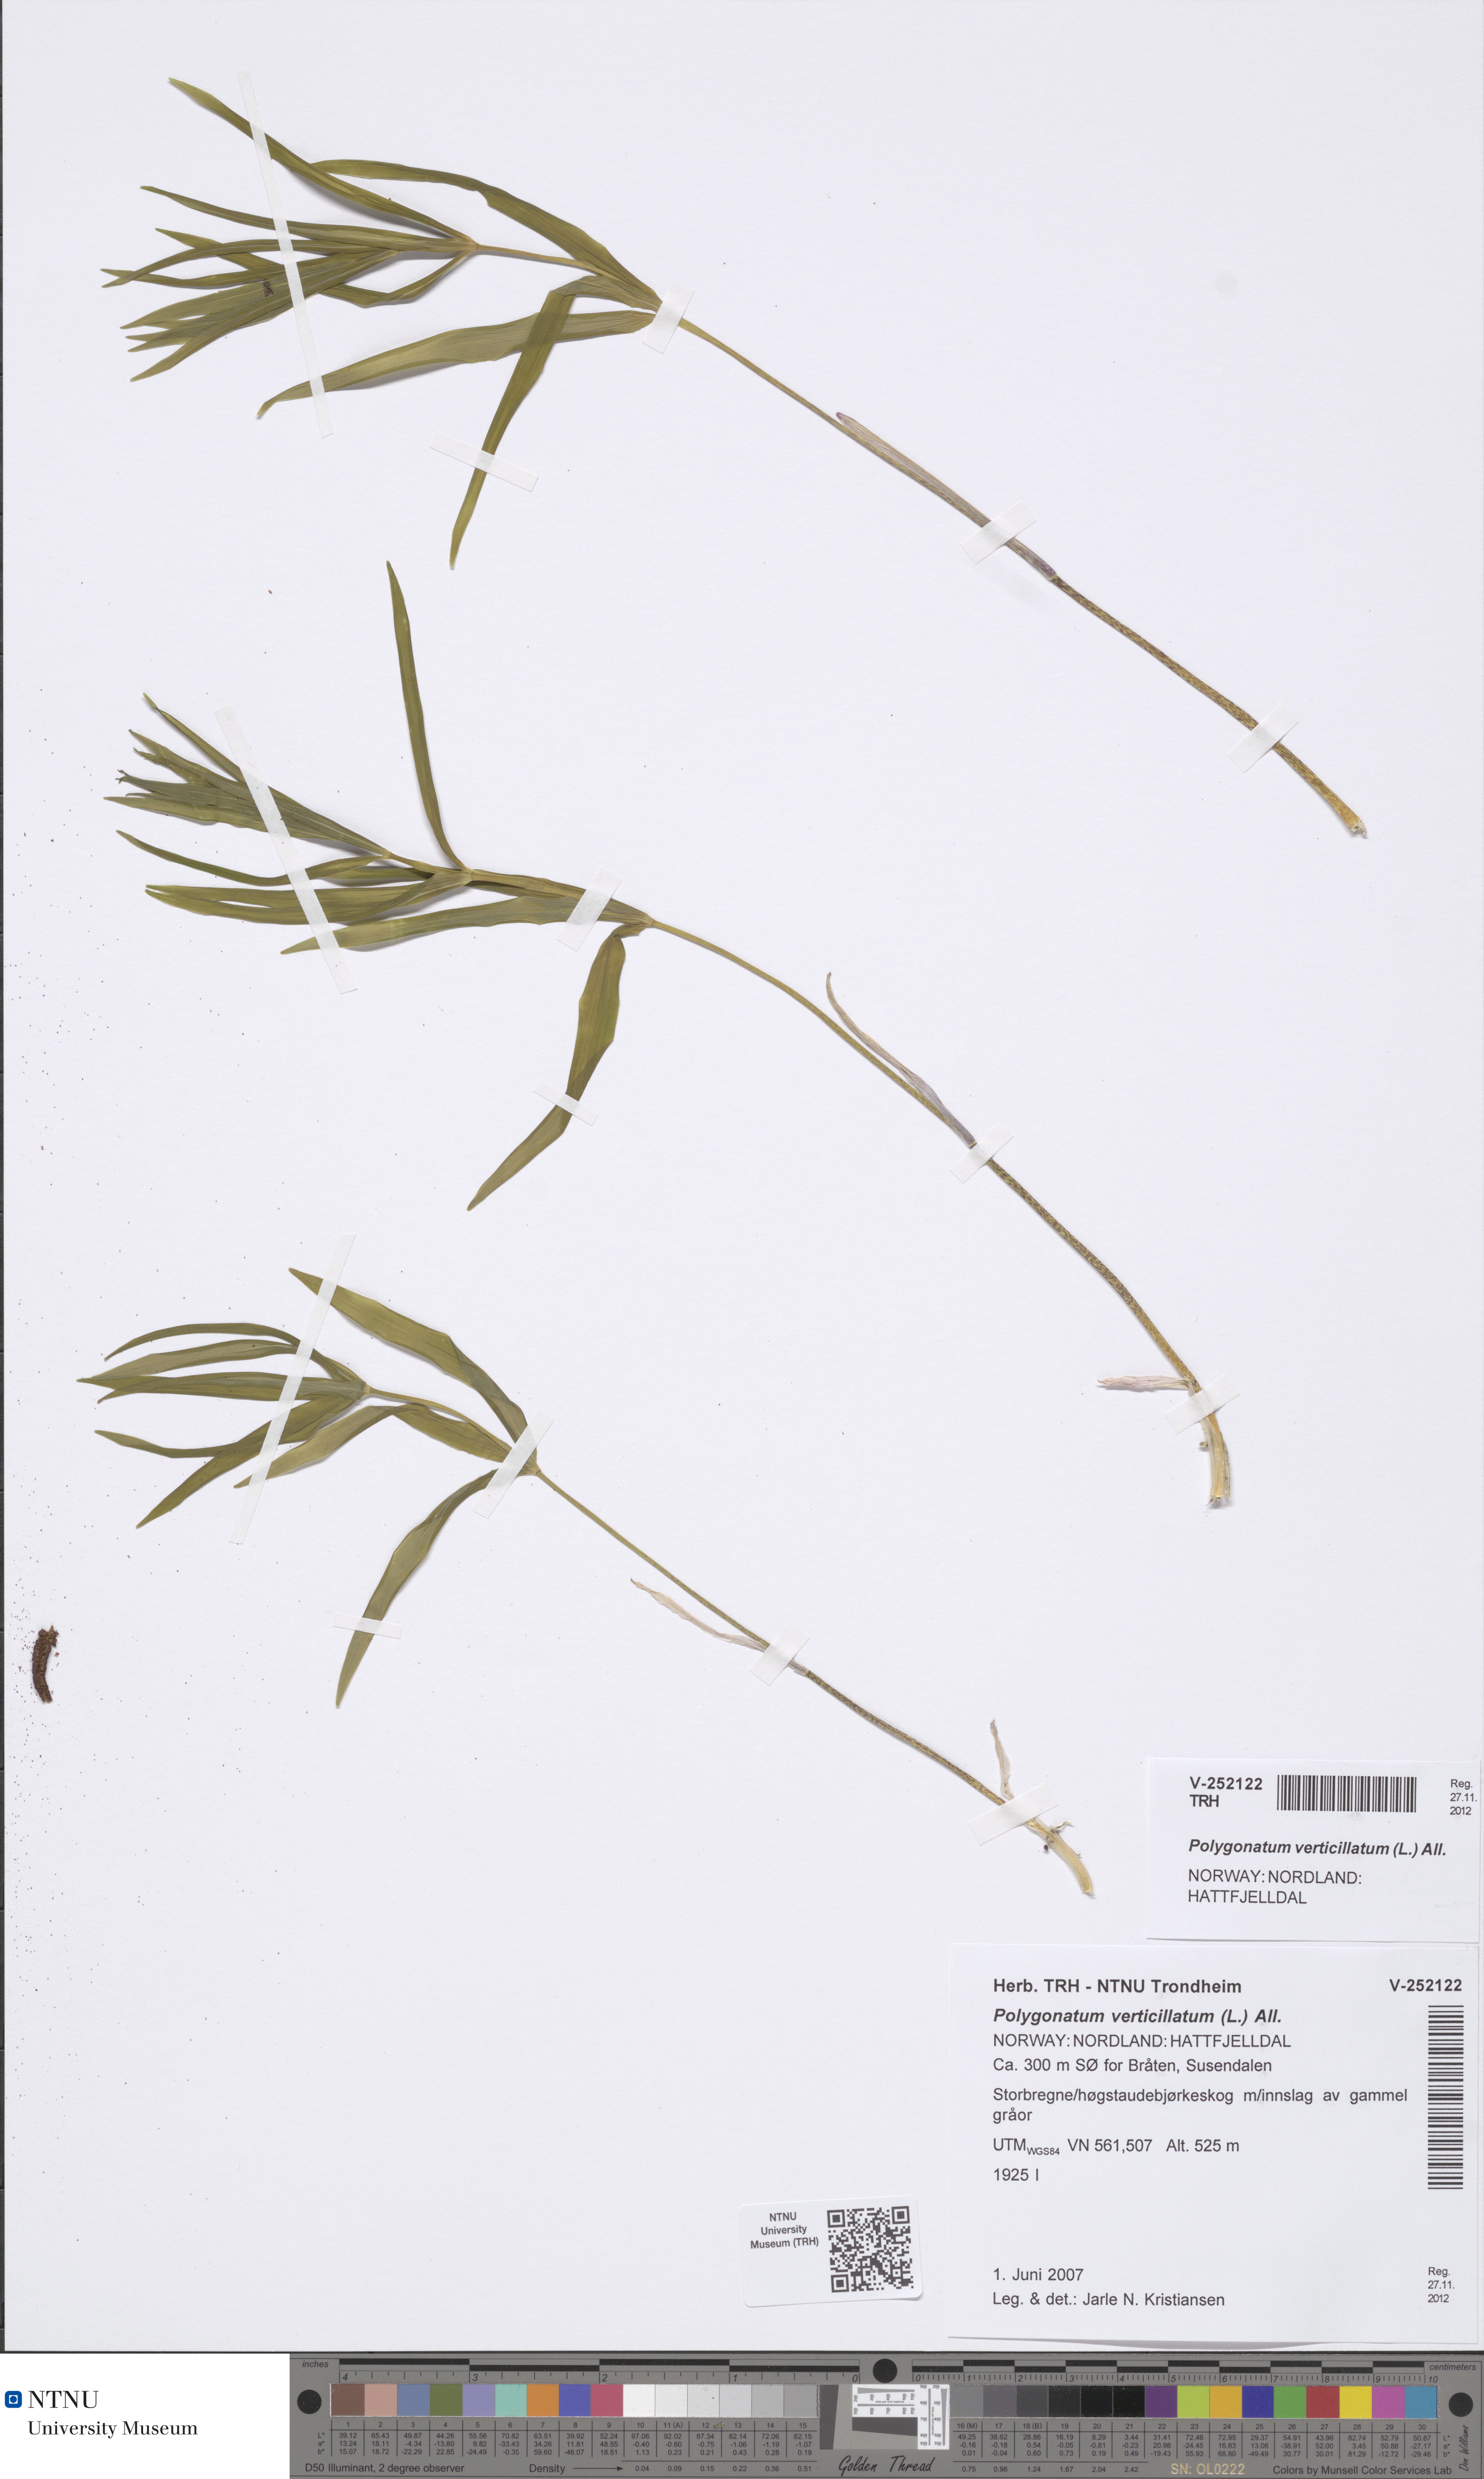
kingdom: Plantae
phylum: Tracheophyta
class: Liliopsida
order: Asparagales
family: Asparagaceae
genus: Polygonatum
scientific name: Polygonatum verticillatum
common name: Whorled solomon's-seal
